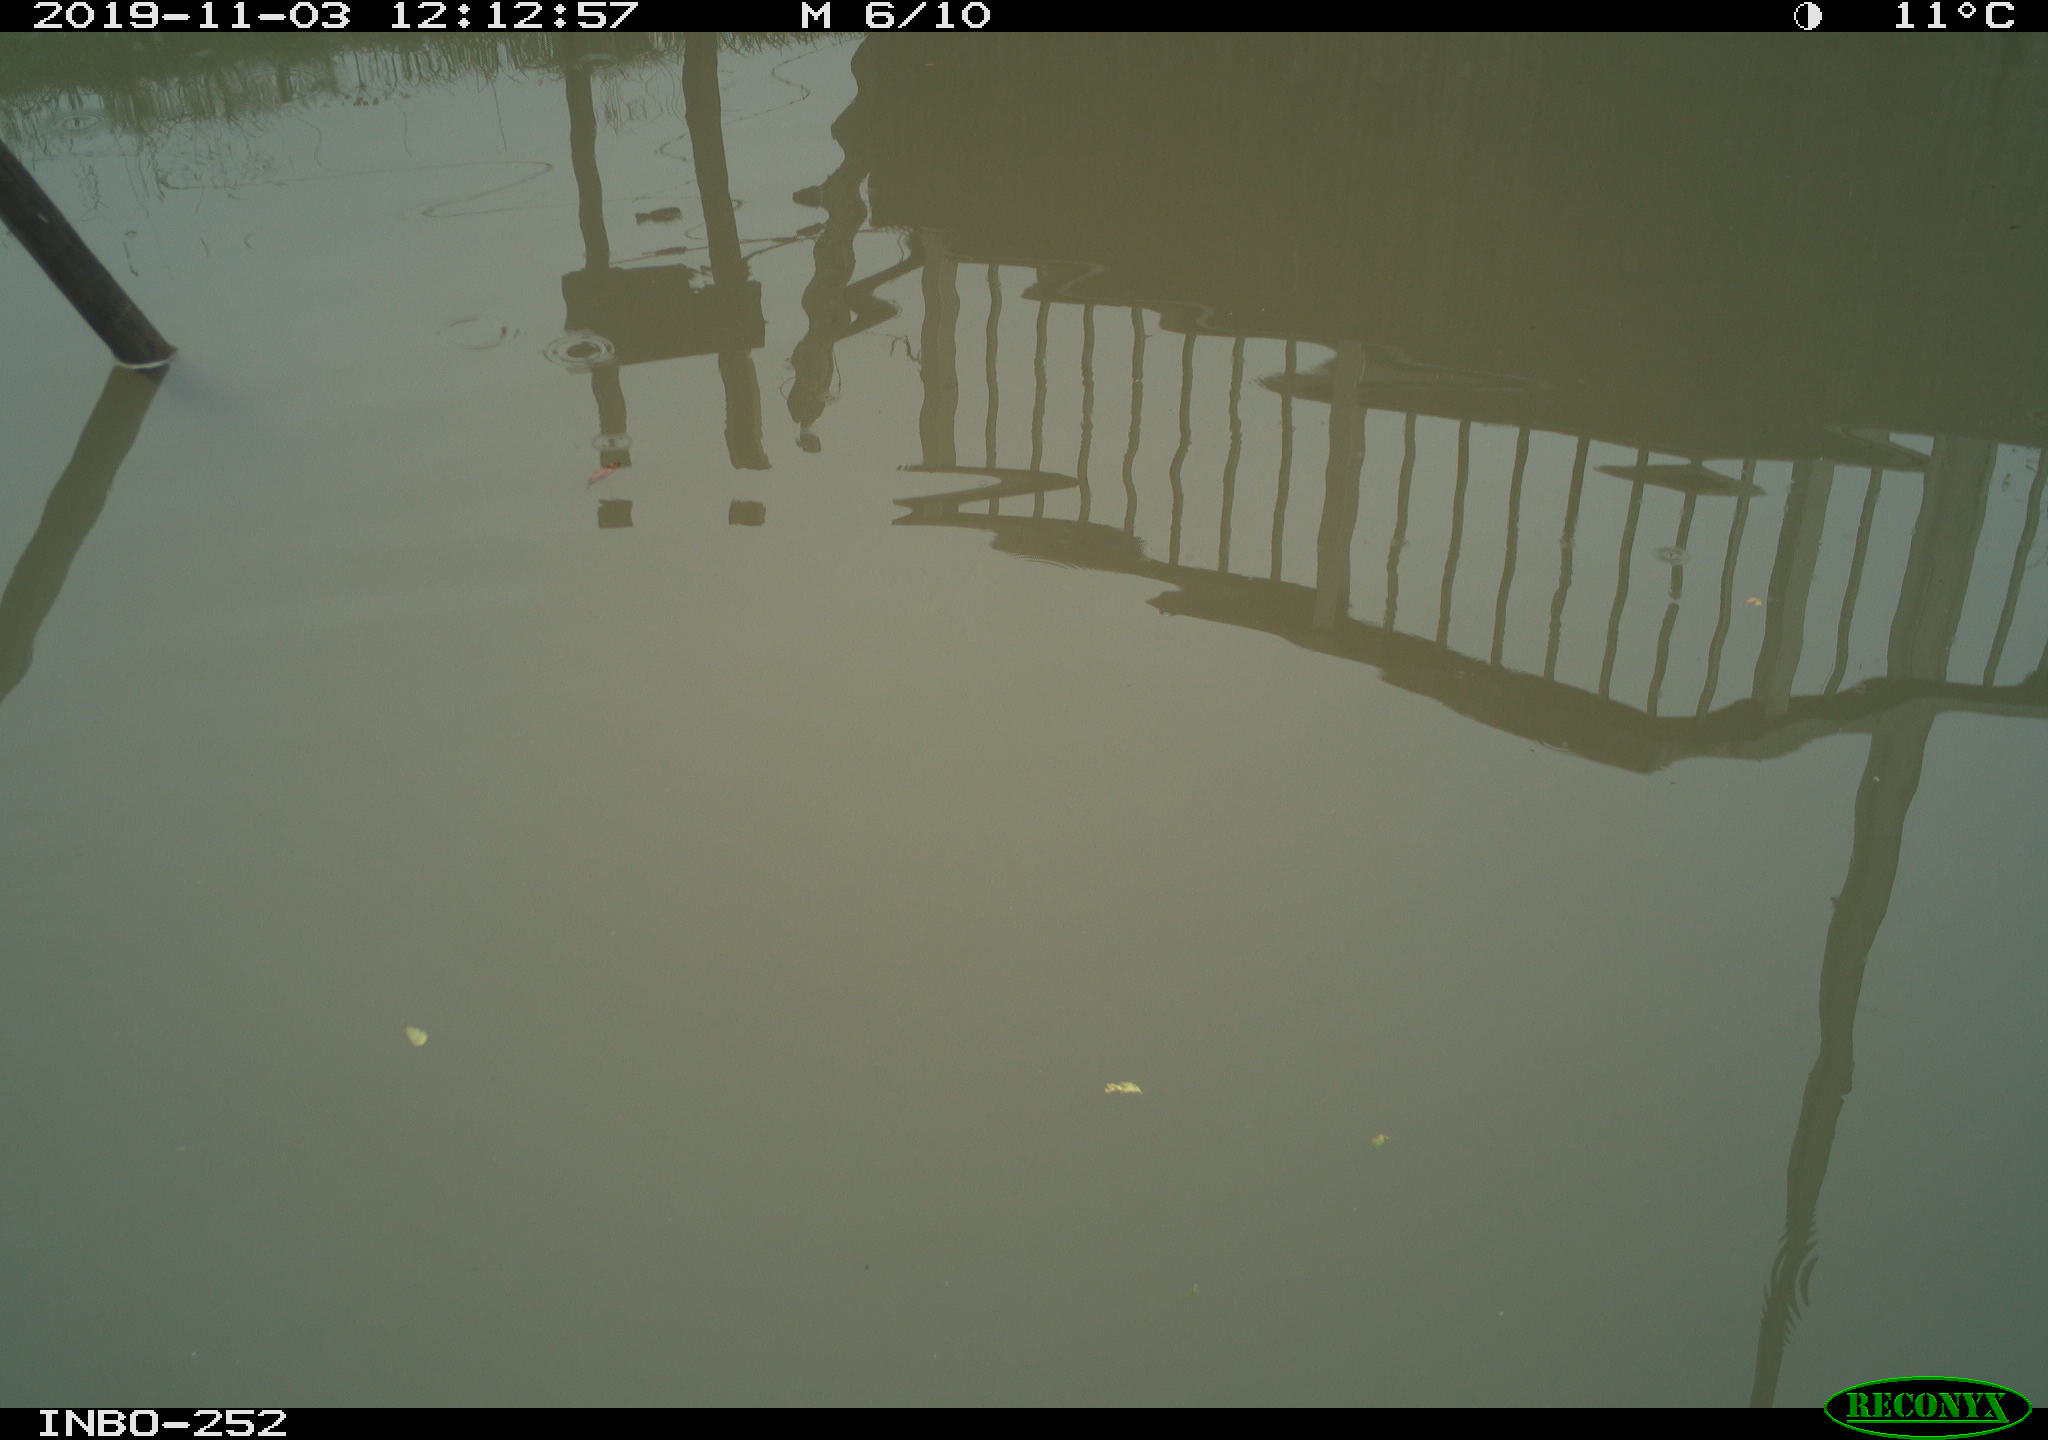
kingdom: Animalia
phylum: Chordata
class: Aves
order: Gruiformes
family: Rallidae
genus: Gallinula
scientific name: Gallinula chloropus
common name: Common moorhen
